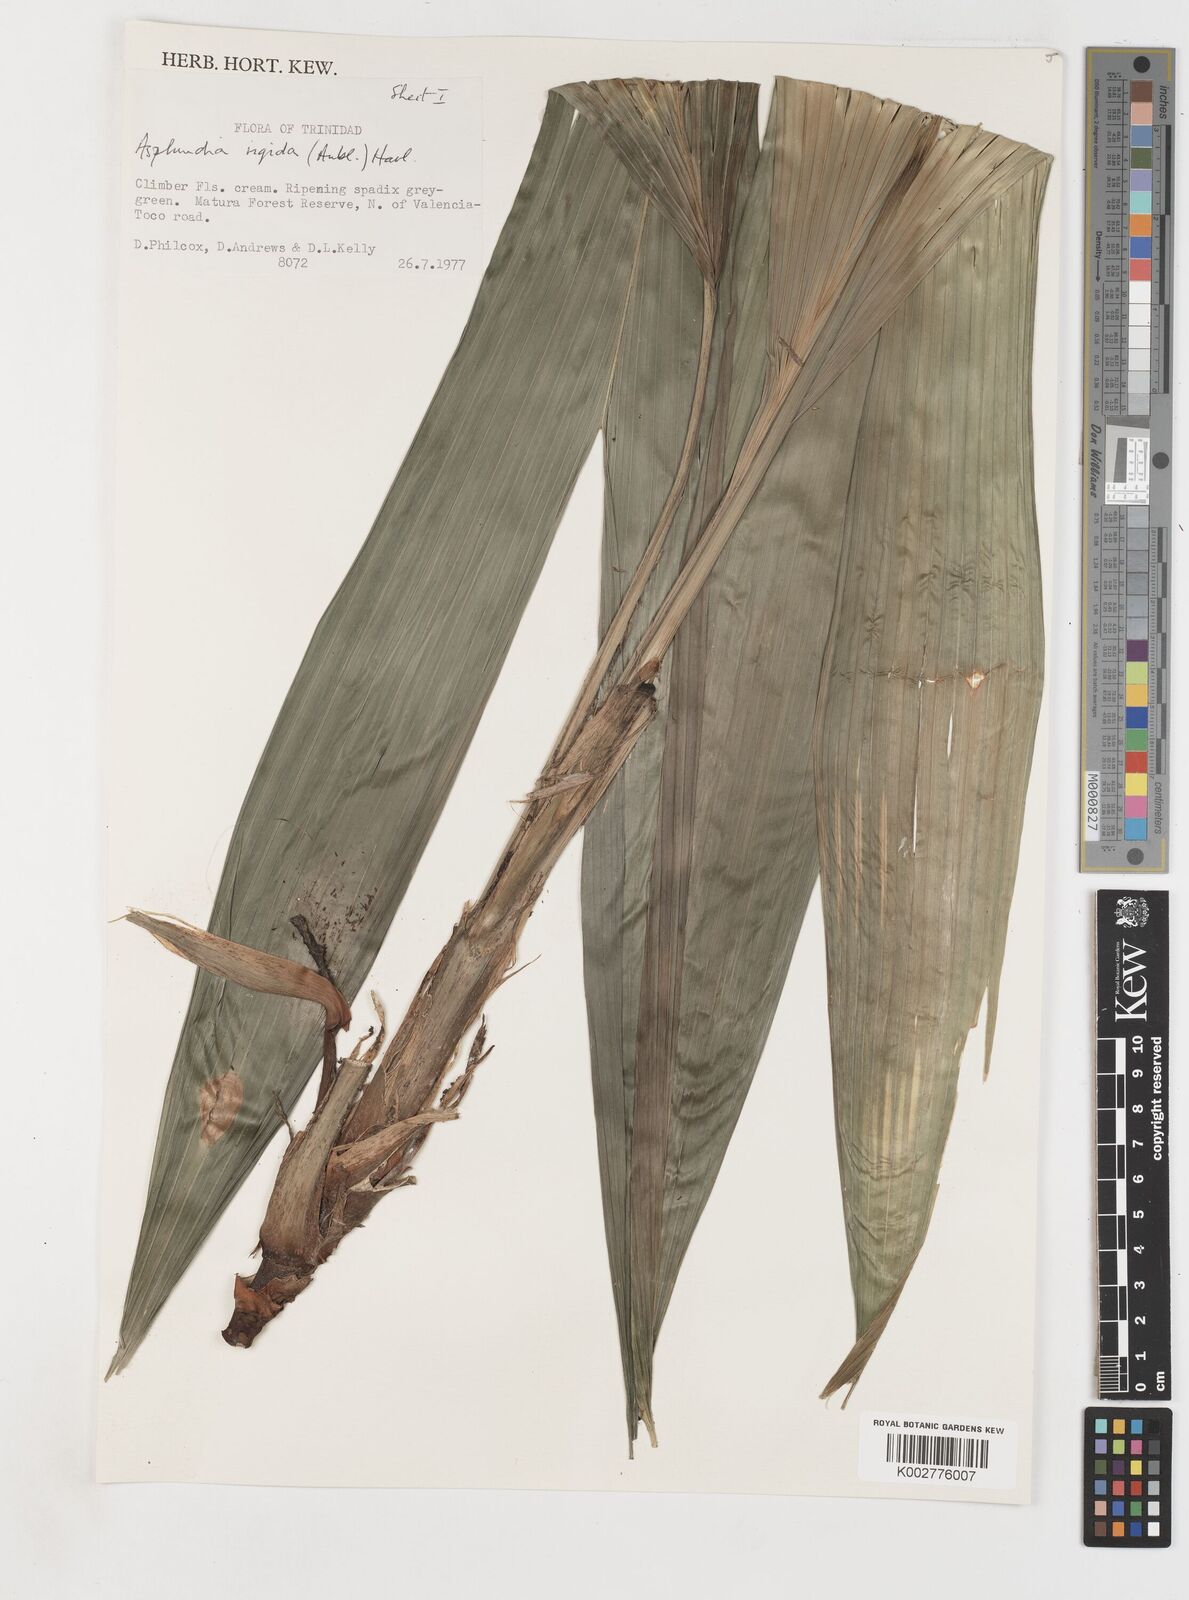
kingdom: Plantae
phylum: Tracheophyta
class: Liliopsida
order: Pandanales
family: Cyclanthaceae
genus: Asplundia
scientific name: Asplundia rigida
